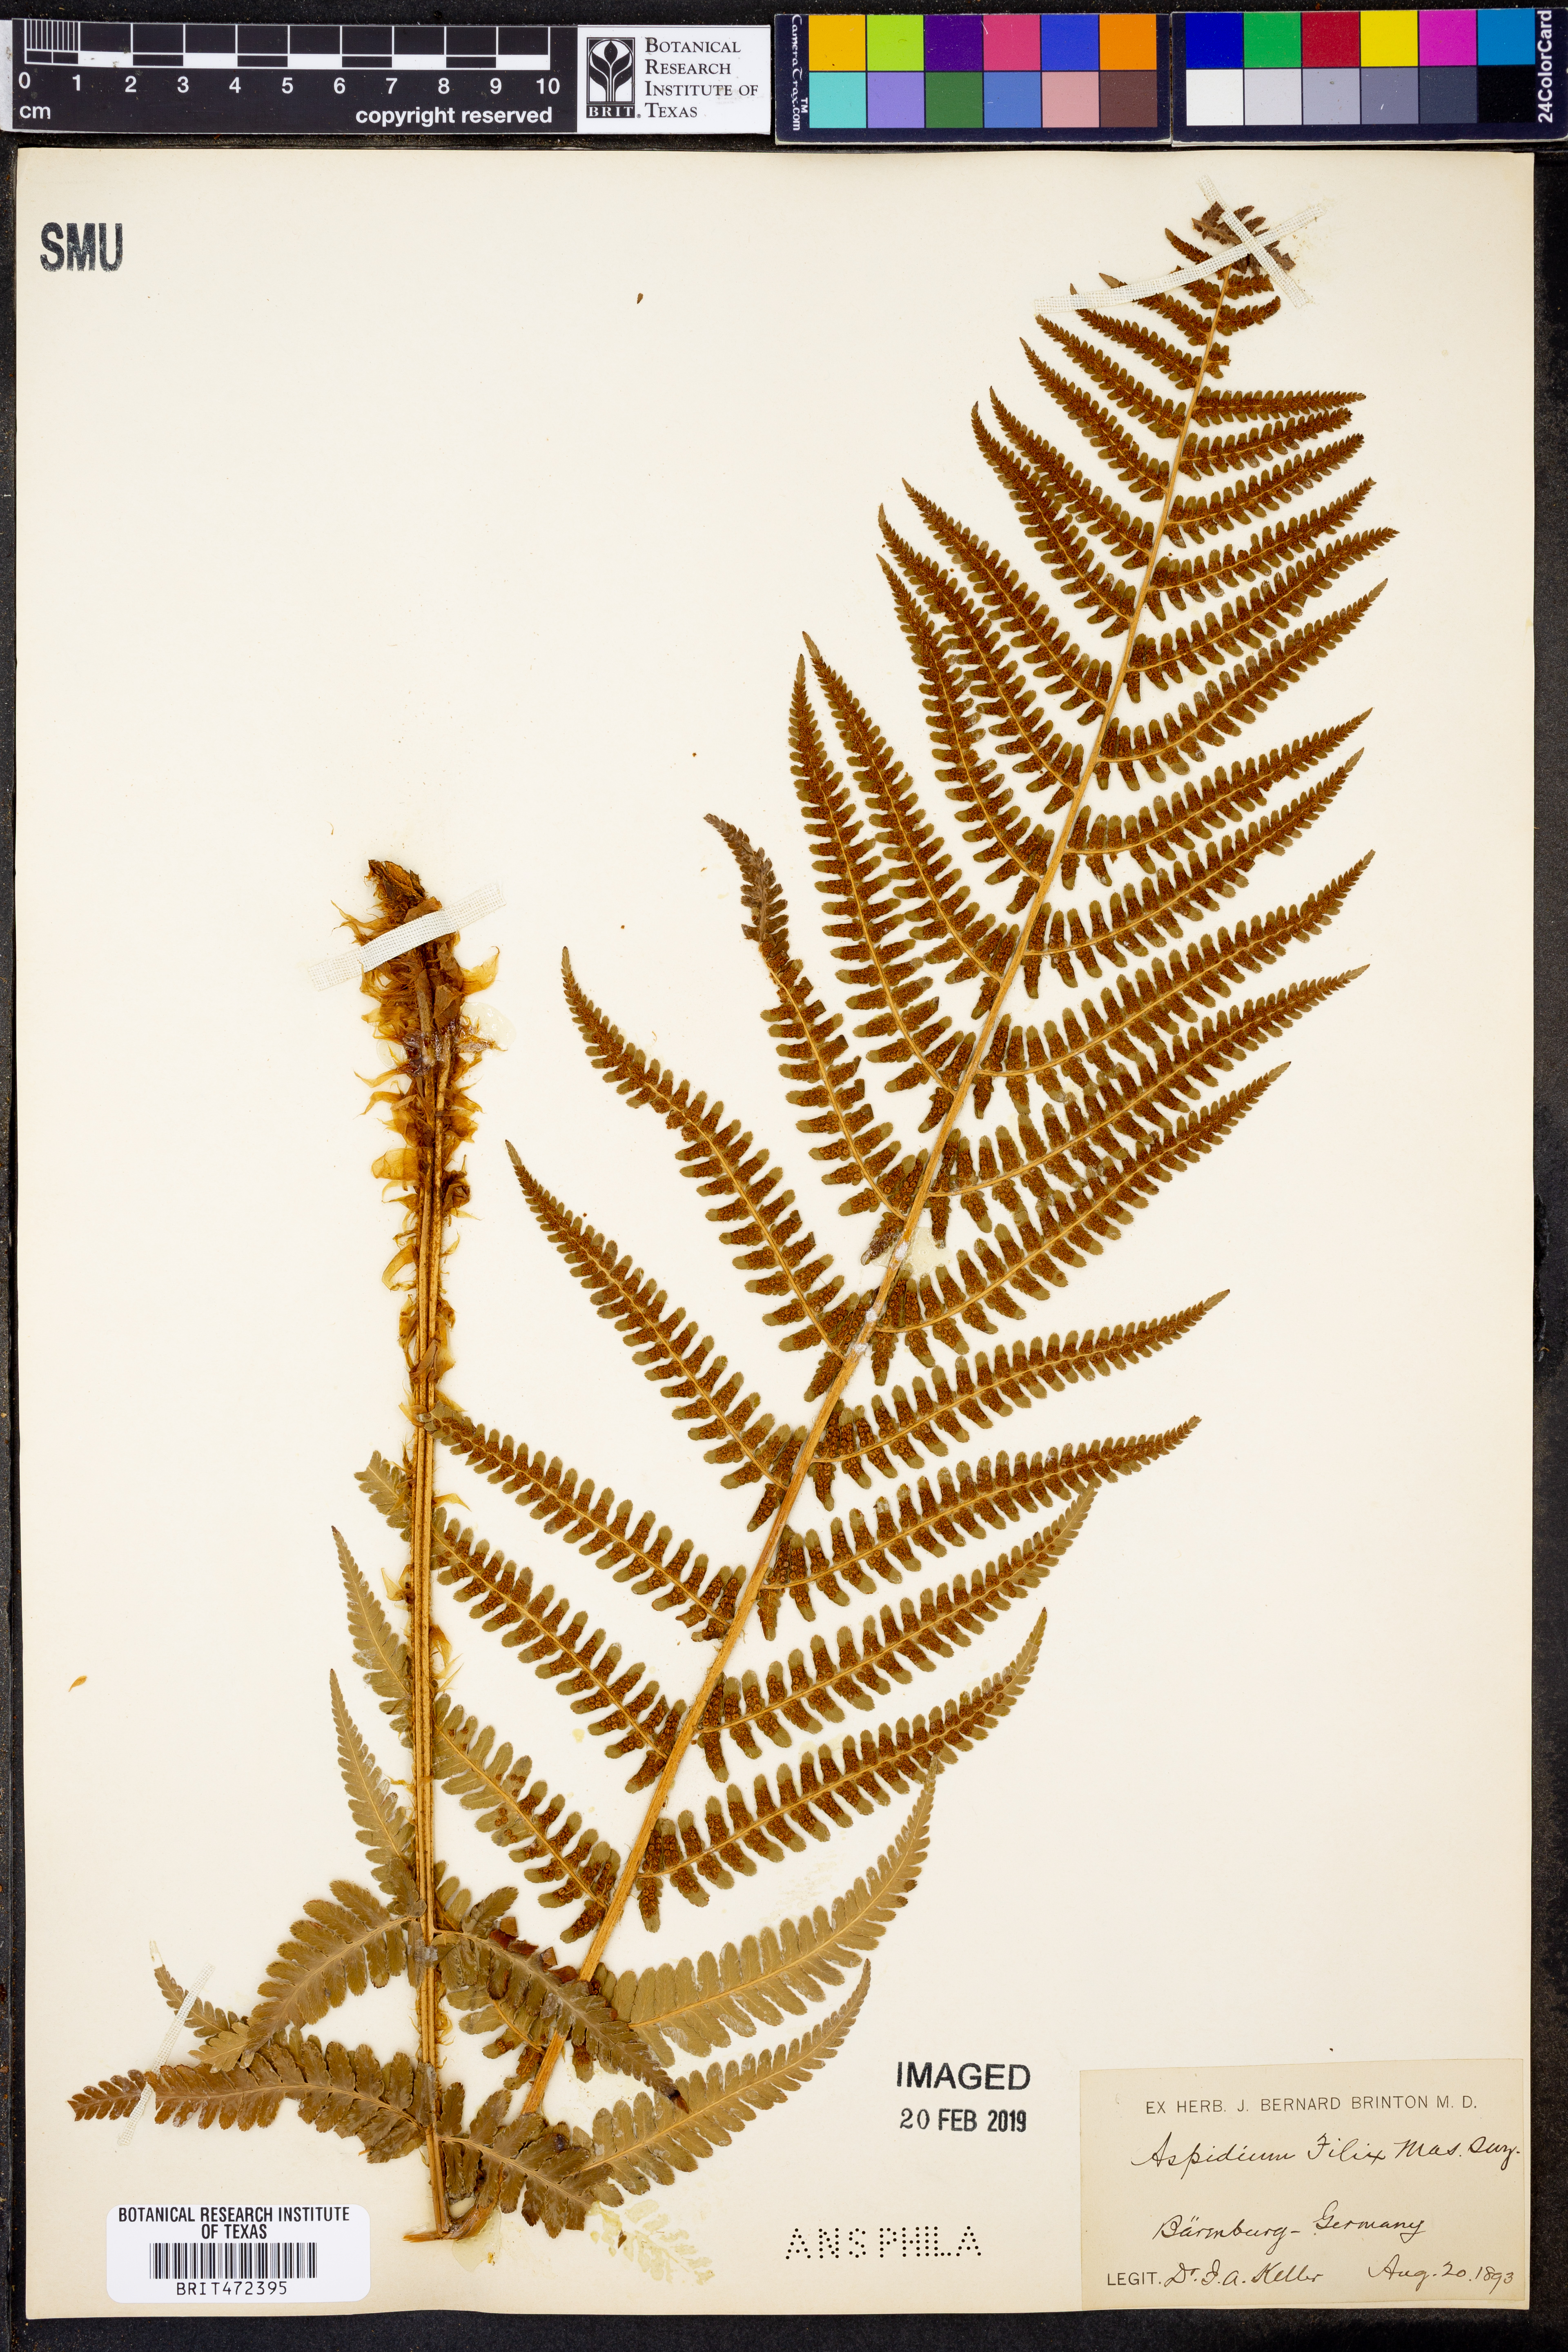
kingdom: Plantae
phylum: Tracheophyta
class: Polypodiopsida
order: Polypodiales
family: Dryopteridaceae
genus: Dryopteris
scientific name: Dryopteris
